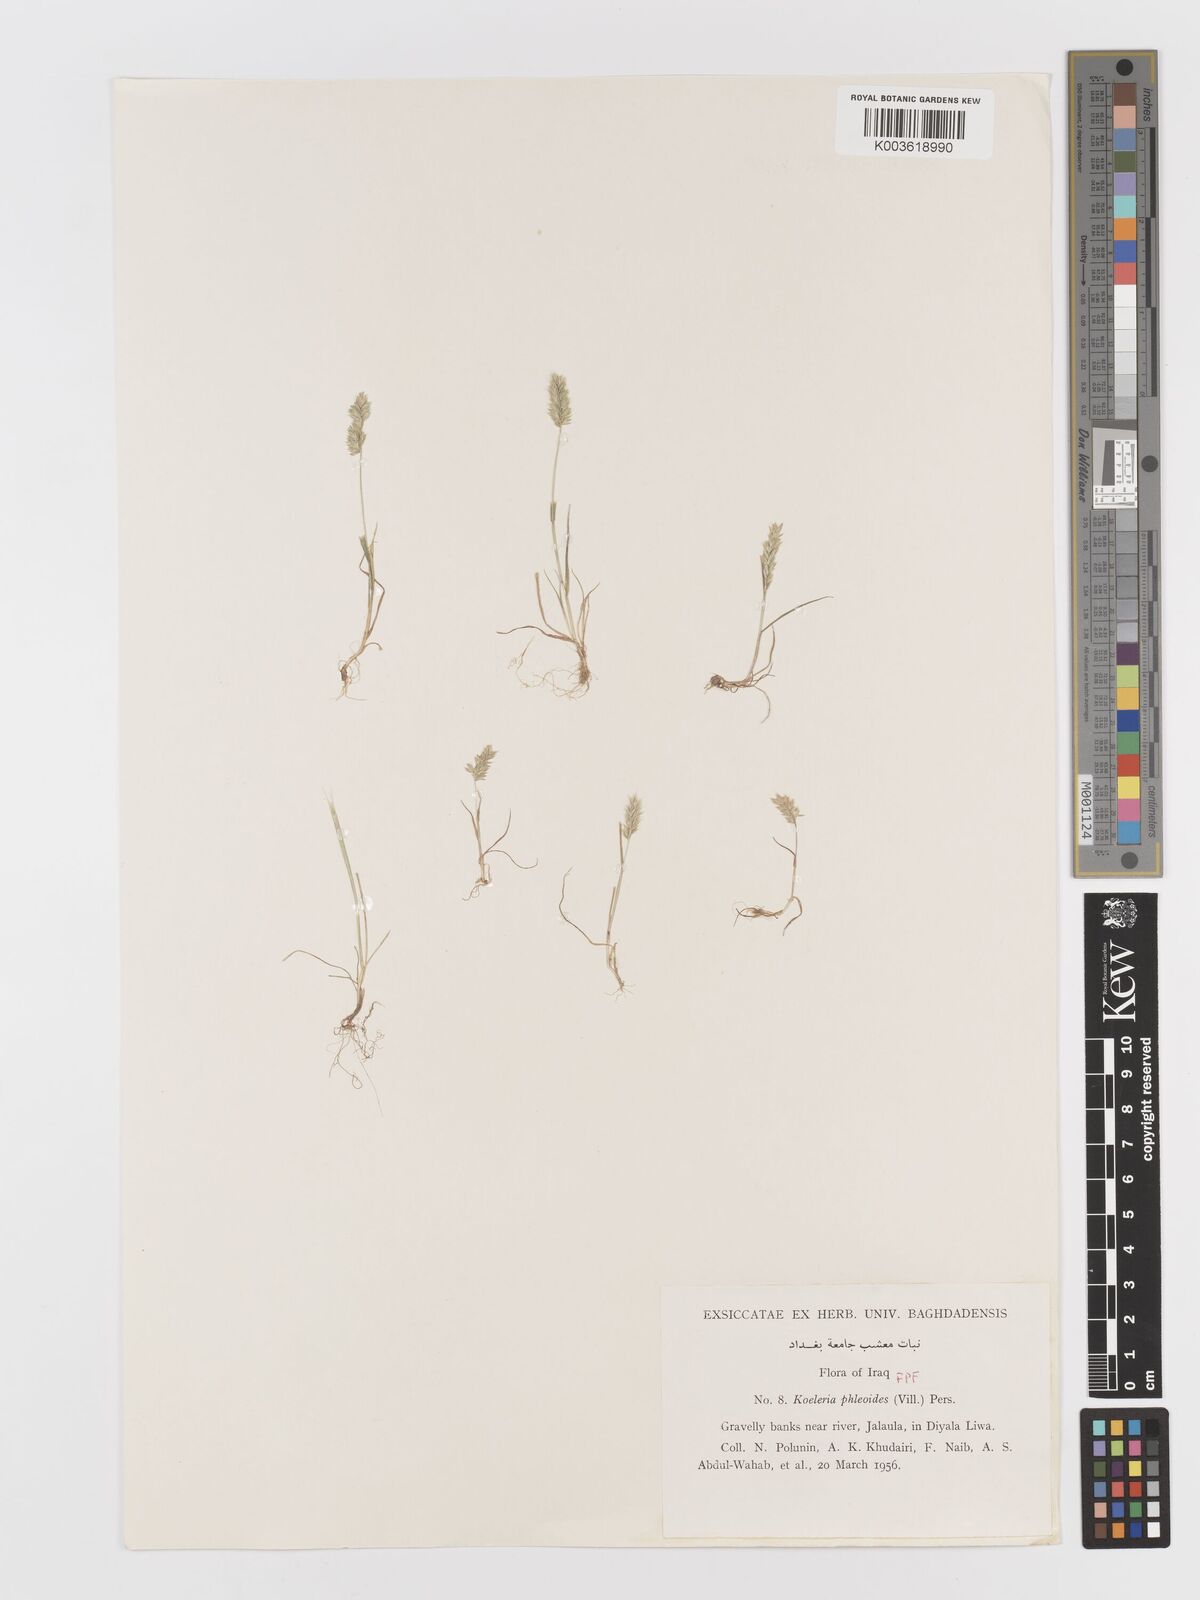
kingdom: Plantae
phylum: Tracheophyta
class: Liliopsida
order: Poales
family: Poaceae
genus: Rostraria
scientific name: Rostraria cristata
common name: Mediterranean hair-grass
